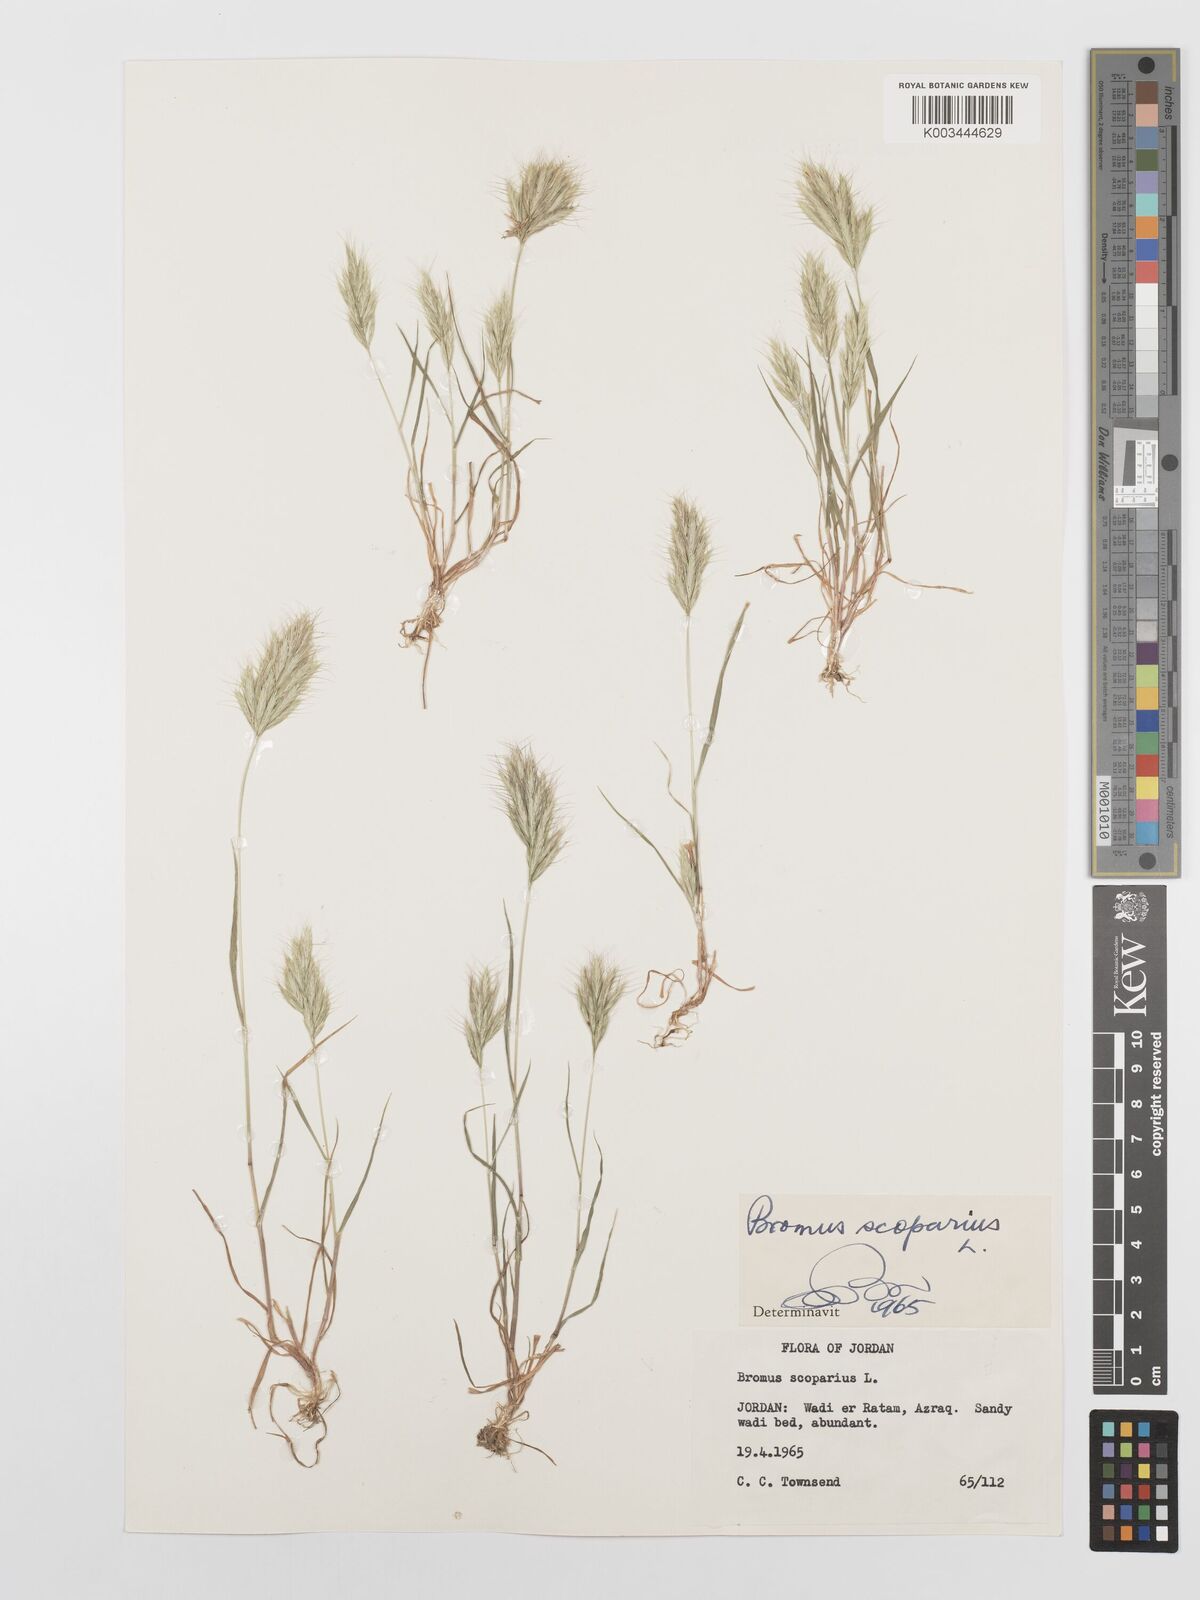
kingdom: Plantae
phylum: Tracheophyta
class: Liliopsida
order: Poales
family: Poaceae
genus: Bromus
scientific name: Bromus scoparius
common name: Broom brome
